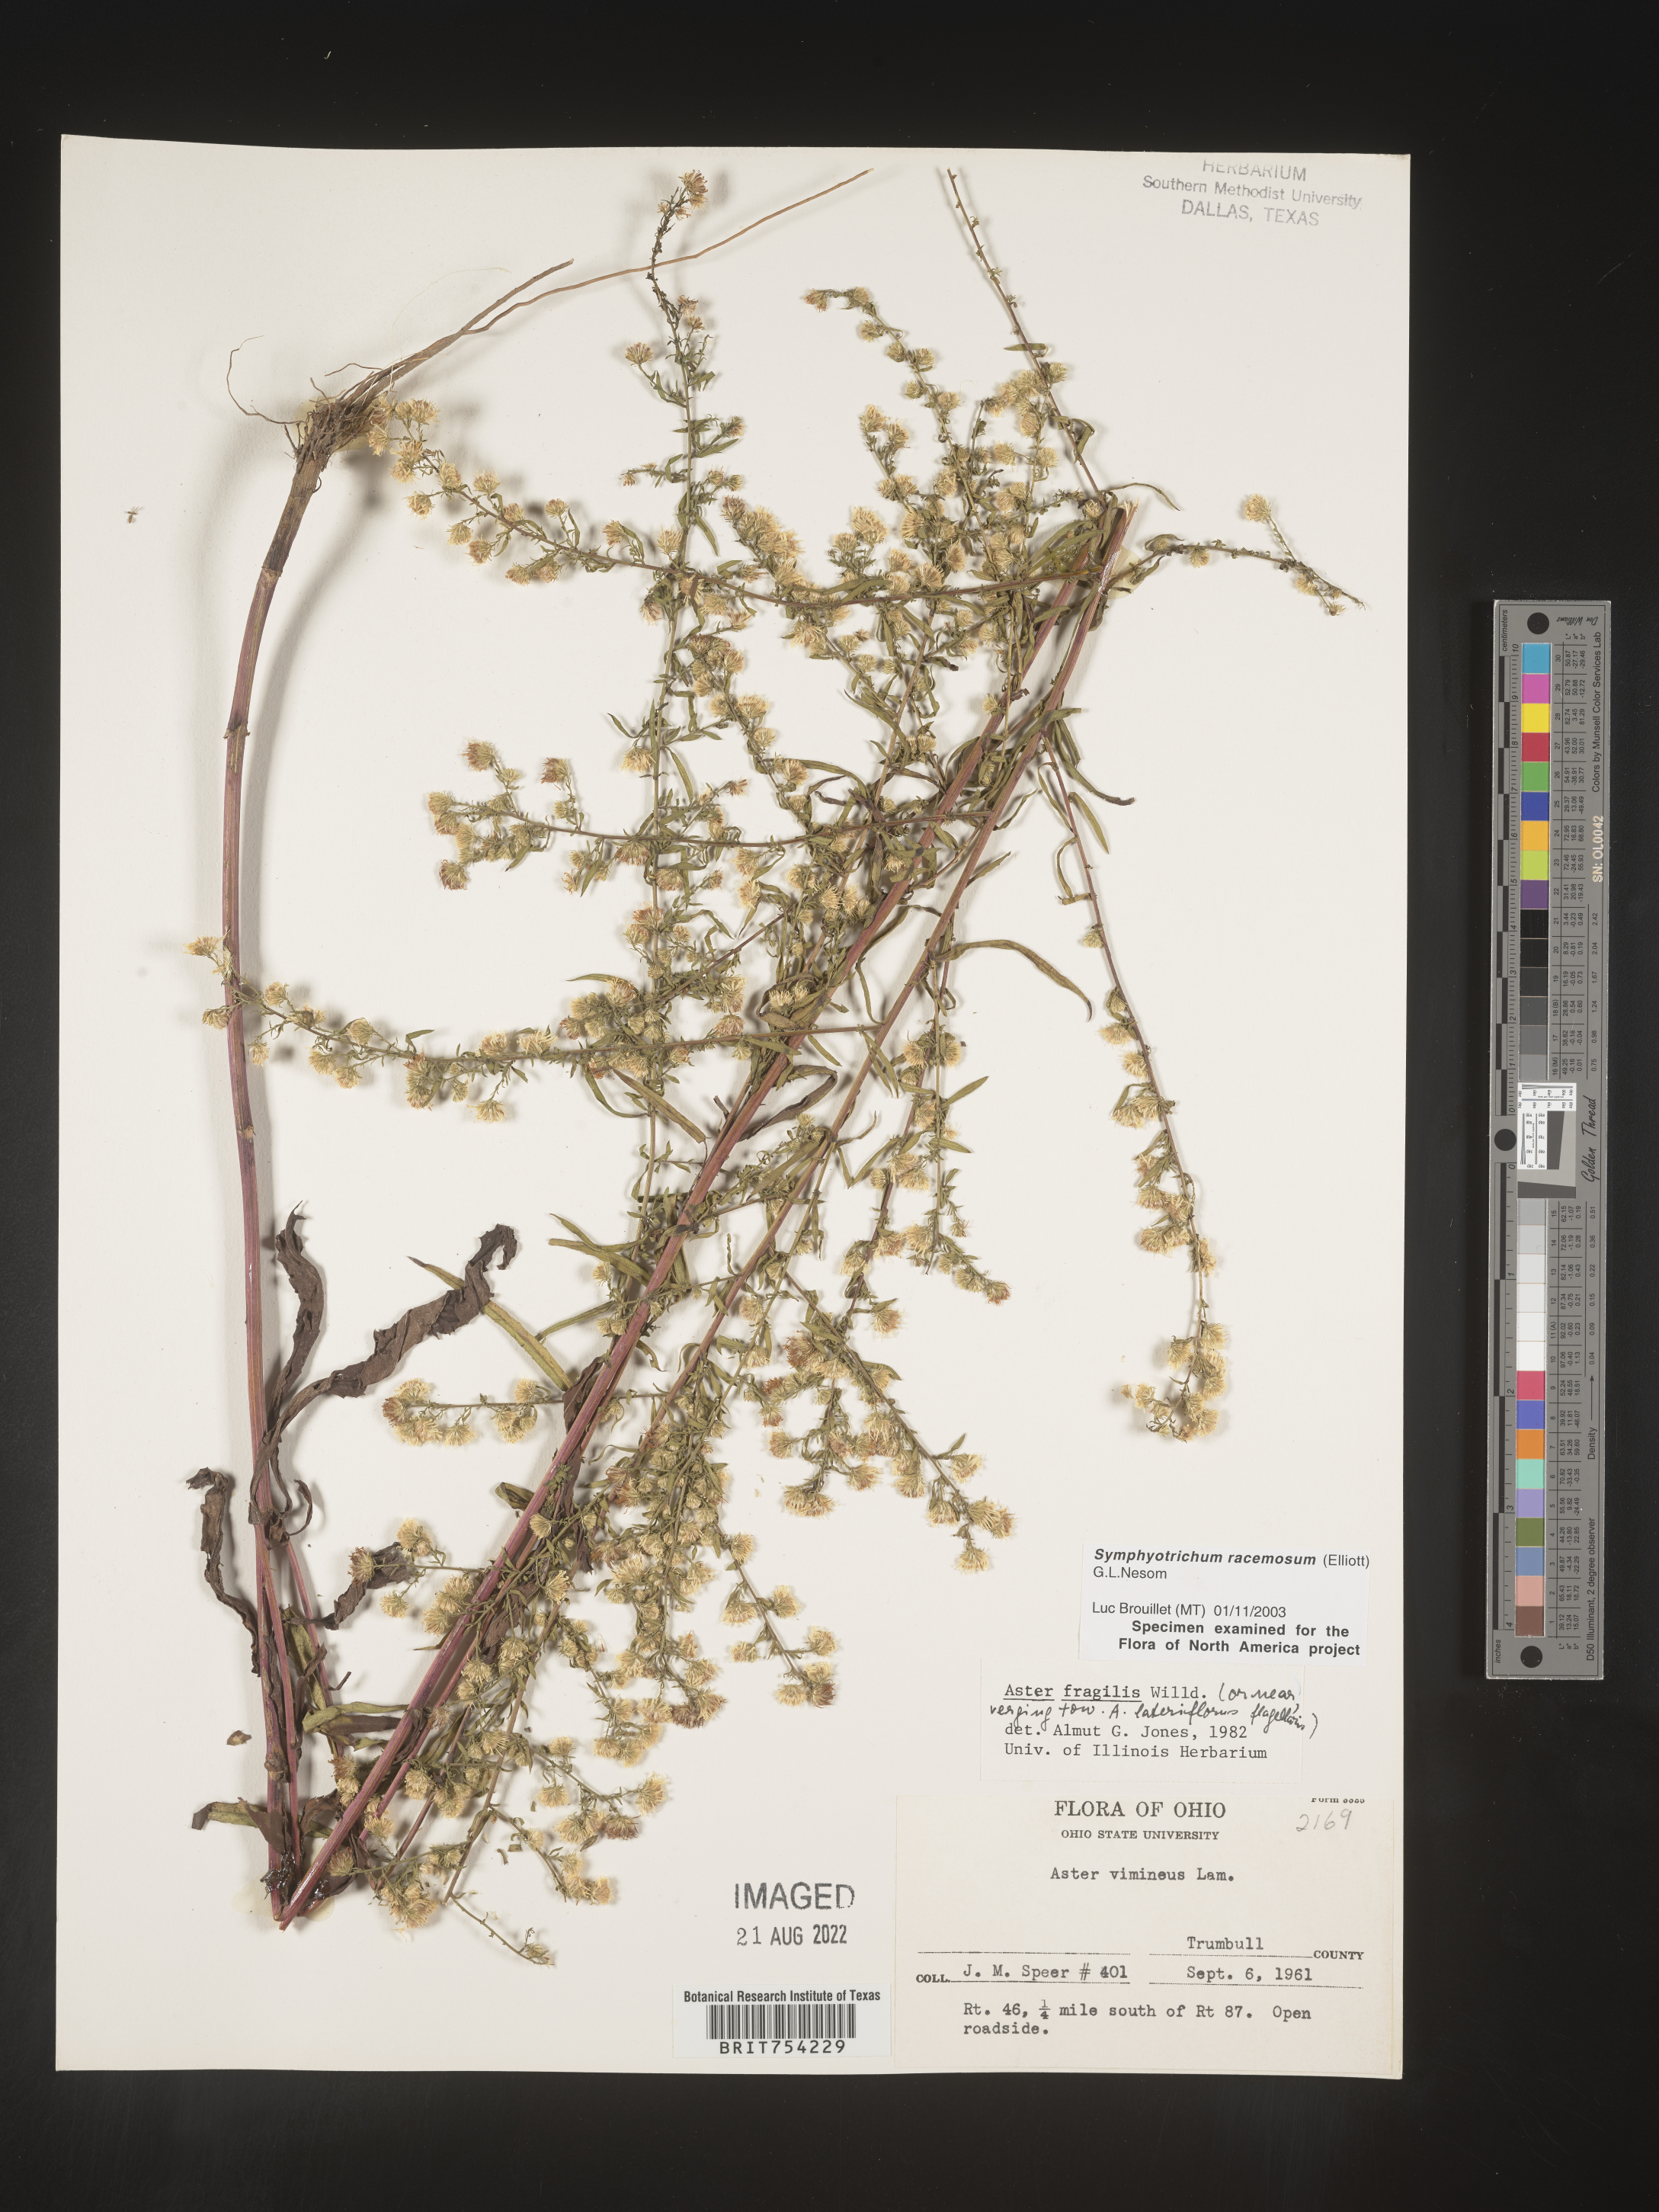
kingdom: Plantae
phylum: Tracheophyta
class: Magnoliopsida
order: Asterales
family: Asteraceae
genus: Symphyotrichum
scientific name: Symphyotrichum racemosum
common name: Small white aster
